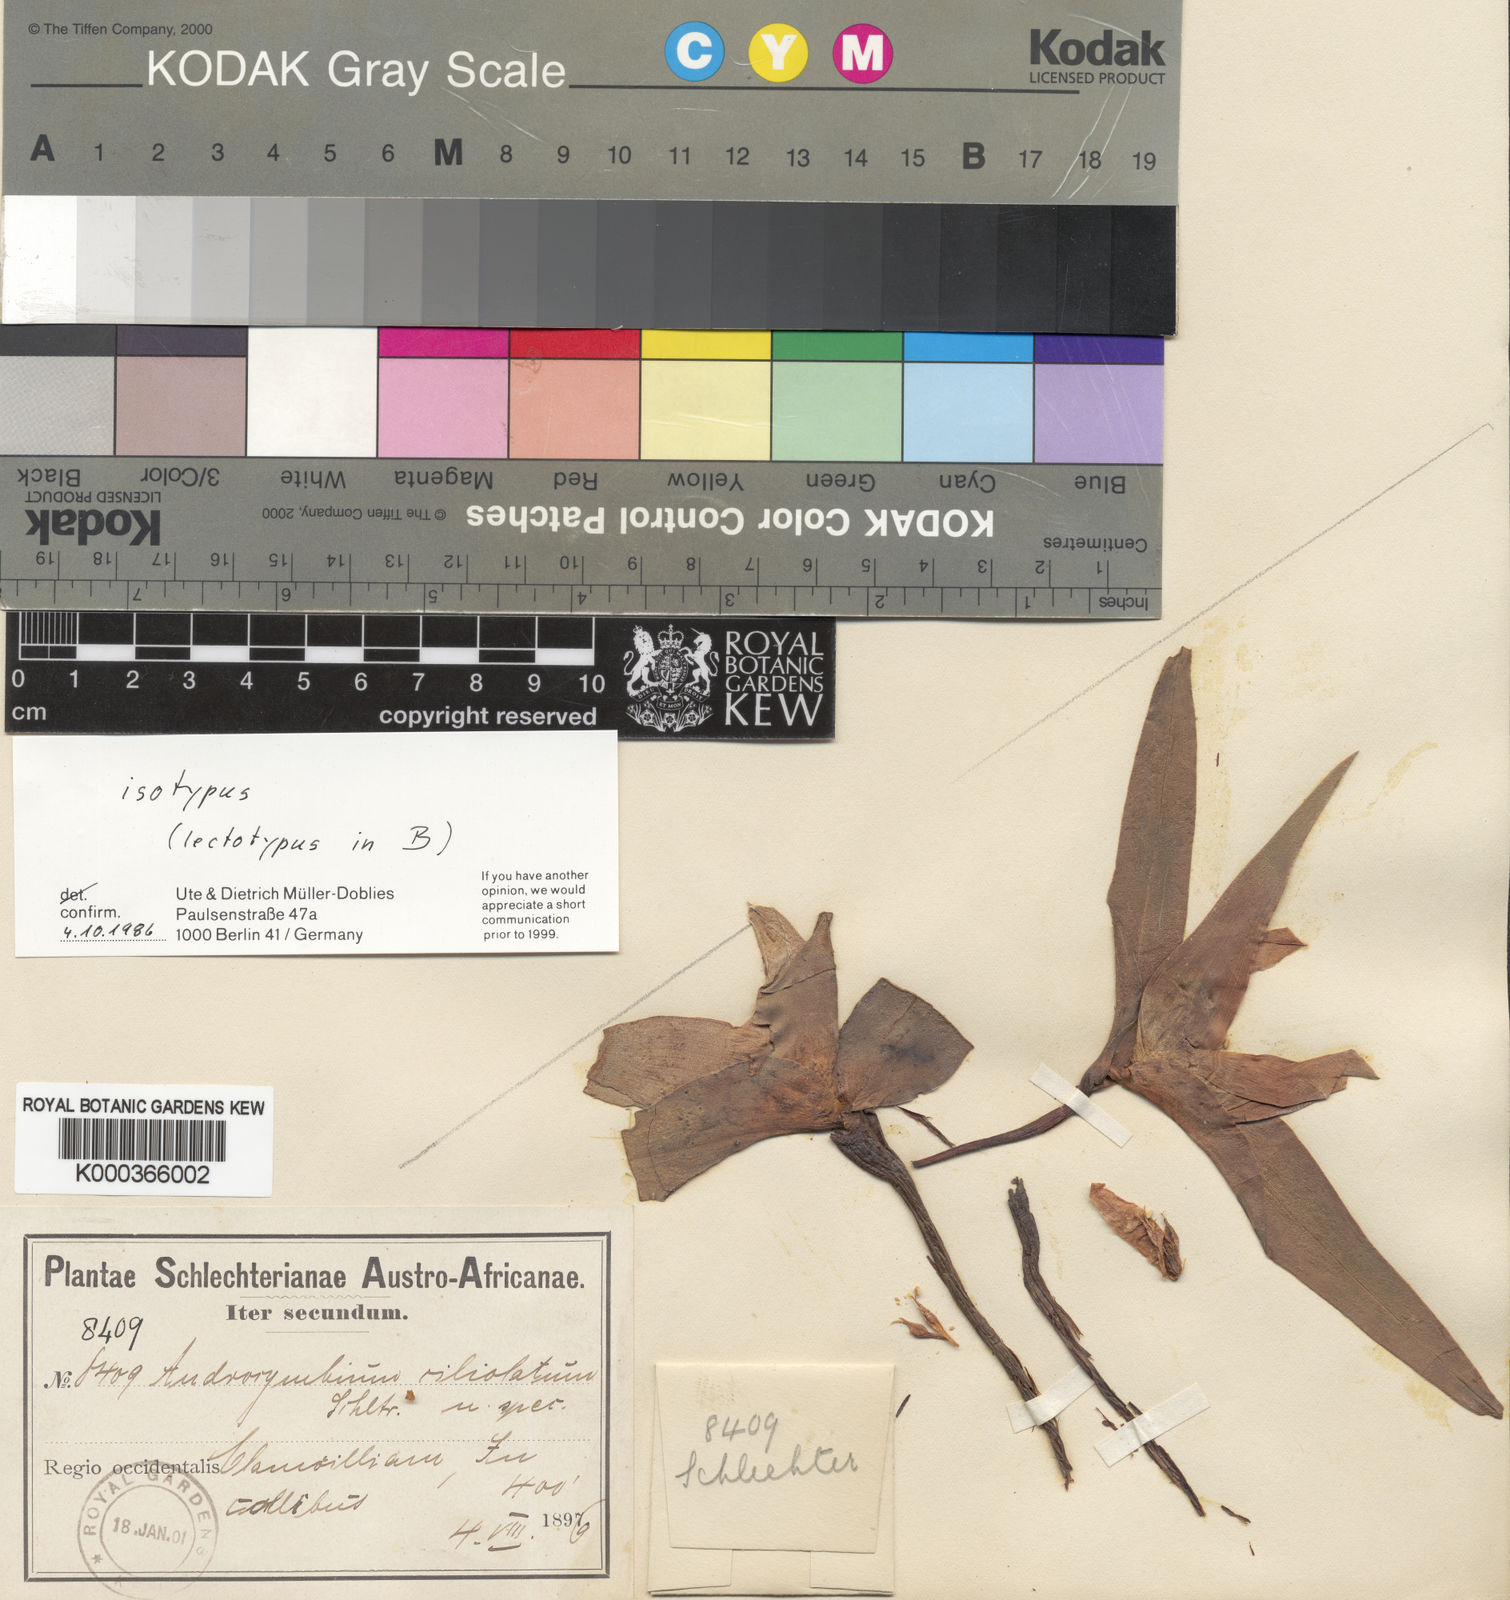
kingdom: Plantae
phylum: Tracheophyta
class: Liliopsida
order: Liliales
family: Colchicaceae
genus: Colchicum
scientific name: Colchicum capense
